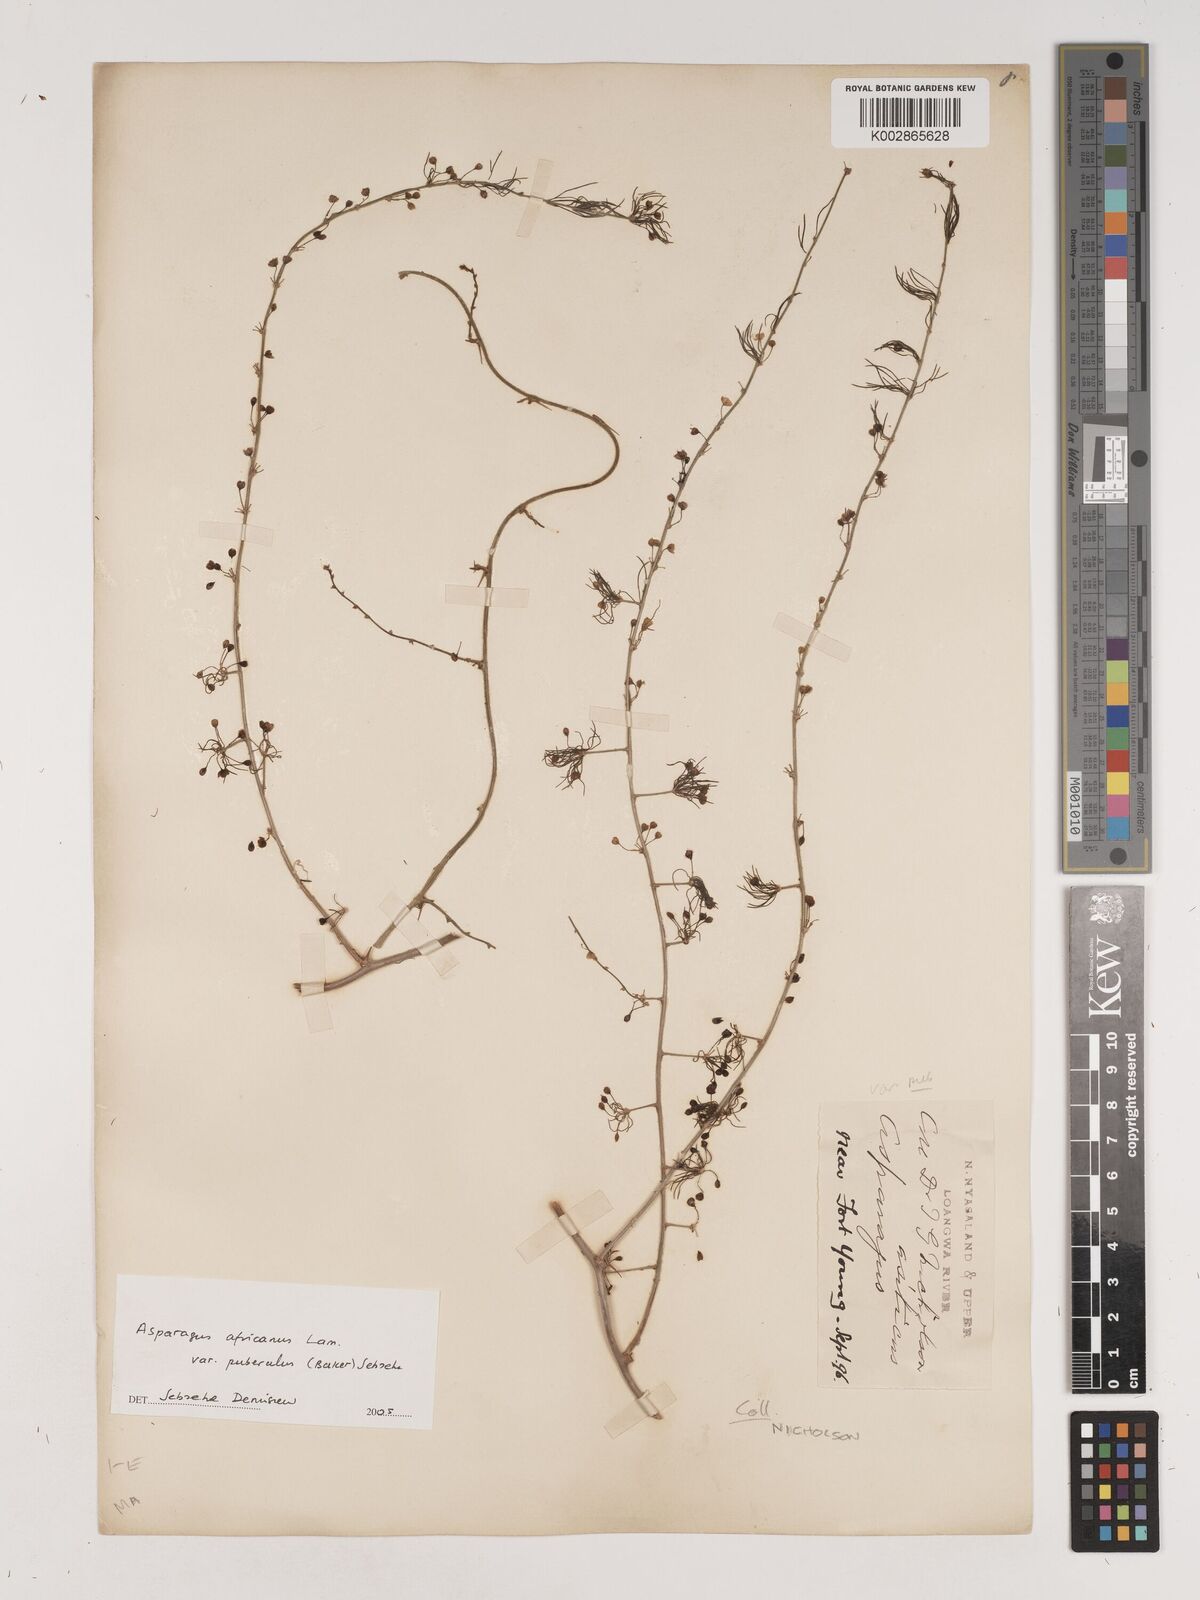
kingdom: Plantae
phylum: Tracheophyta
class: Liliopsida
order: Asparagales
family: Asparagaceae
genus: Asparagus
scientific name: Asparagus africanus
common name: Asparagus-fern
